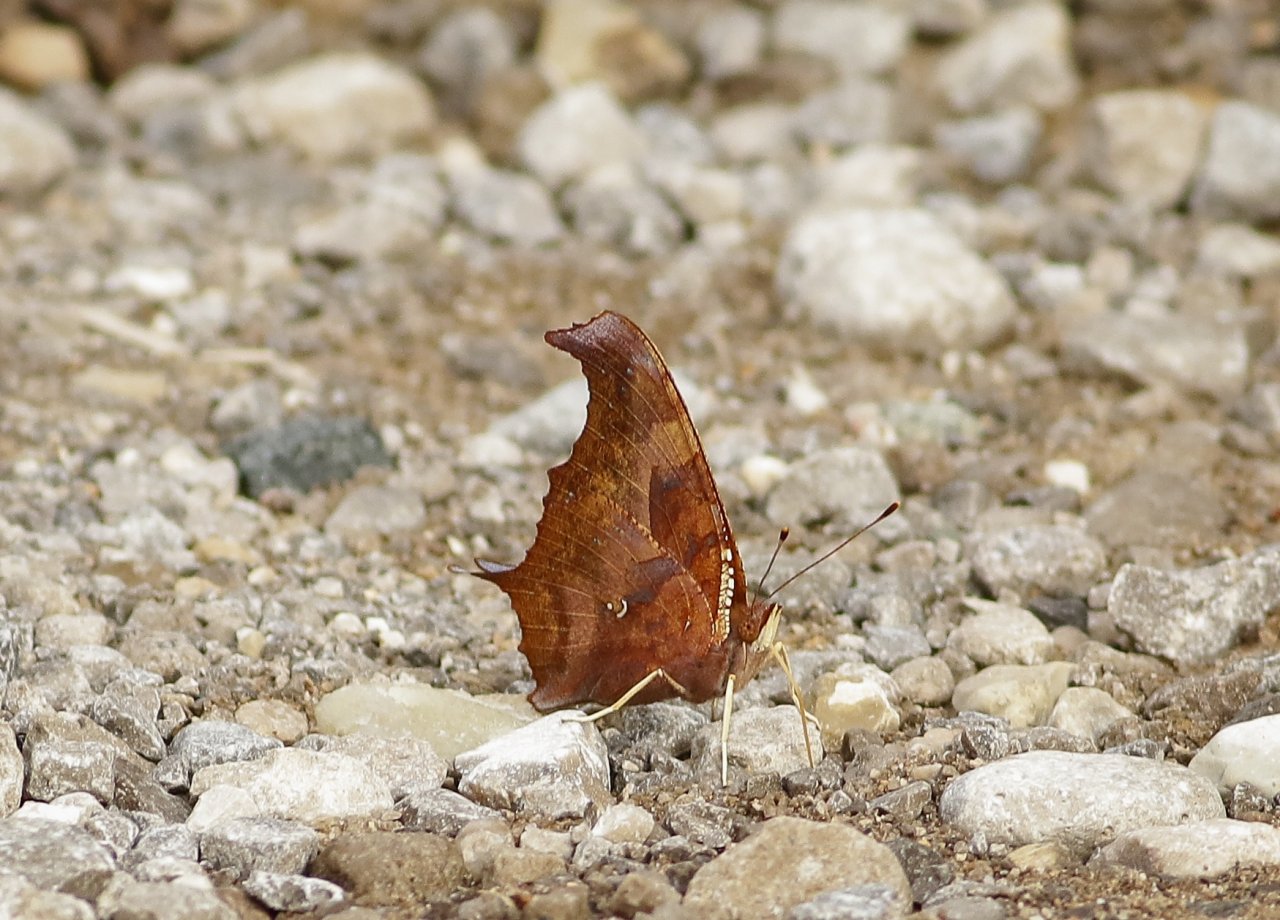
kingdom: Animalia
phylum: Arthropoda
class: Insecta
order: Lepidoptera
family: Nymphalidae
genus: Polygonia
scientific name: Polygonia interrogationis
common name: Question Mark
